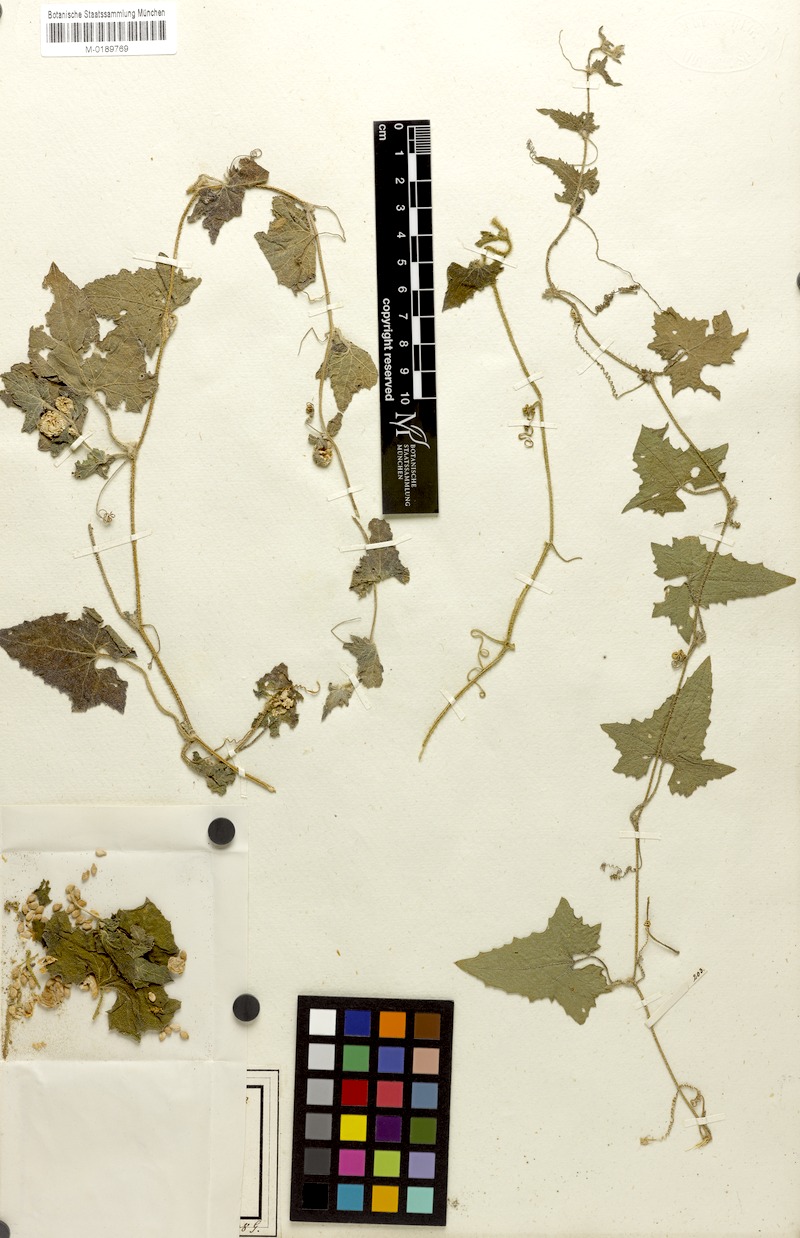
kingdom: Plantae
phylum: Tracheophyta
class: Magnoliopsida
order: Cucurbitales
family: Cucurbitaceae
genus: Cucumis
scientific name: Cucumis maderaspatanus
